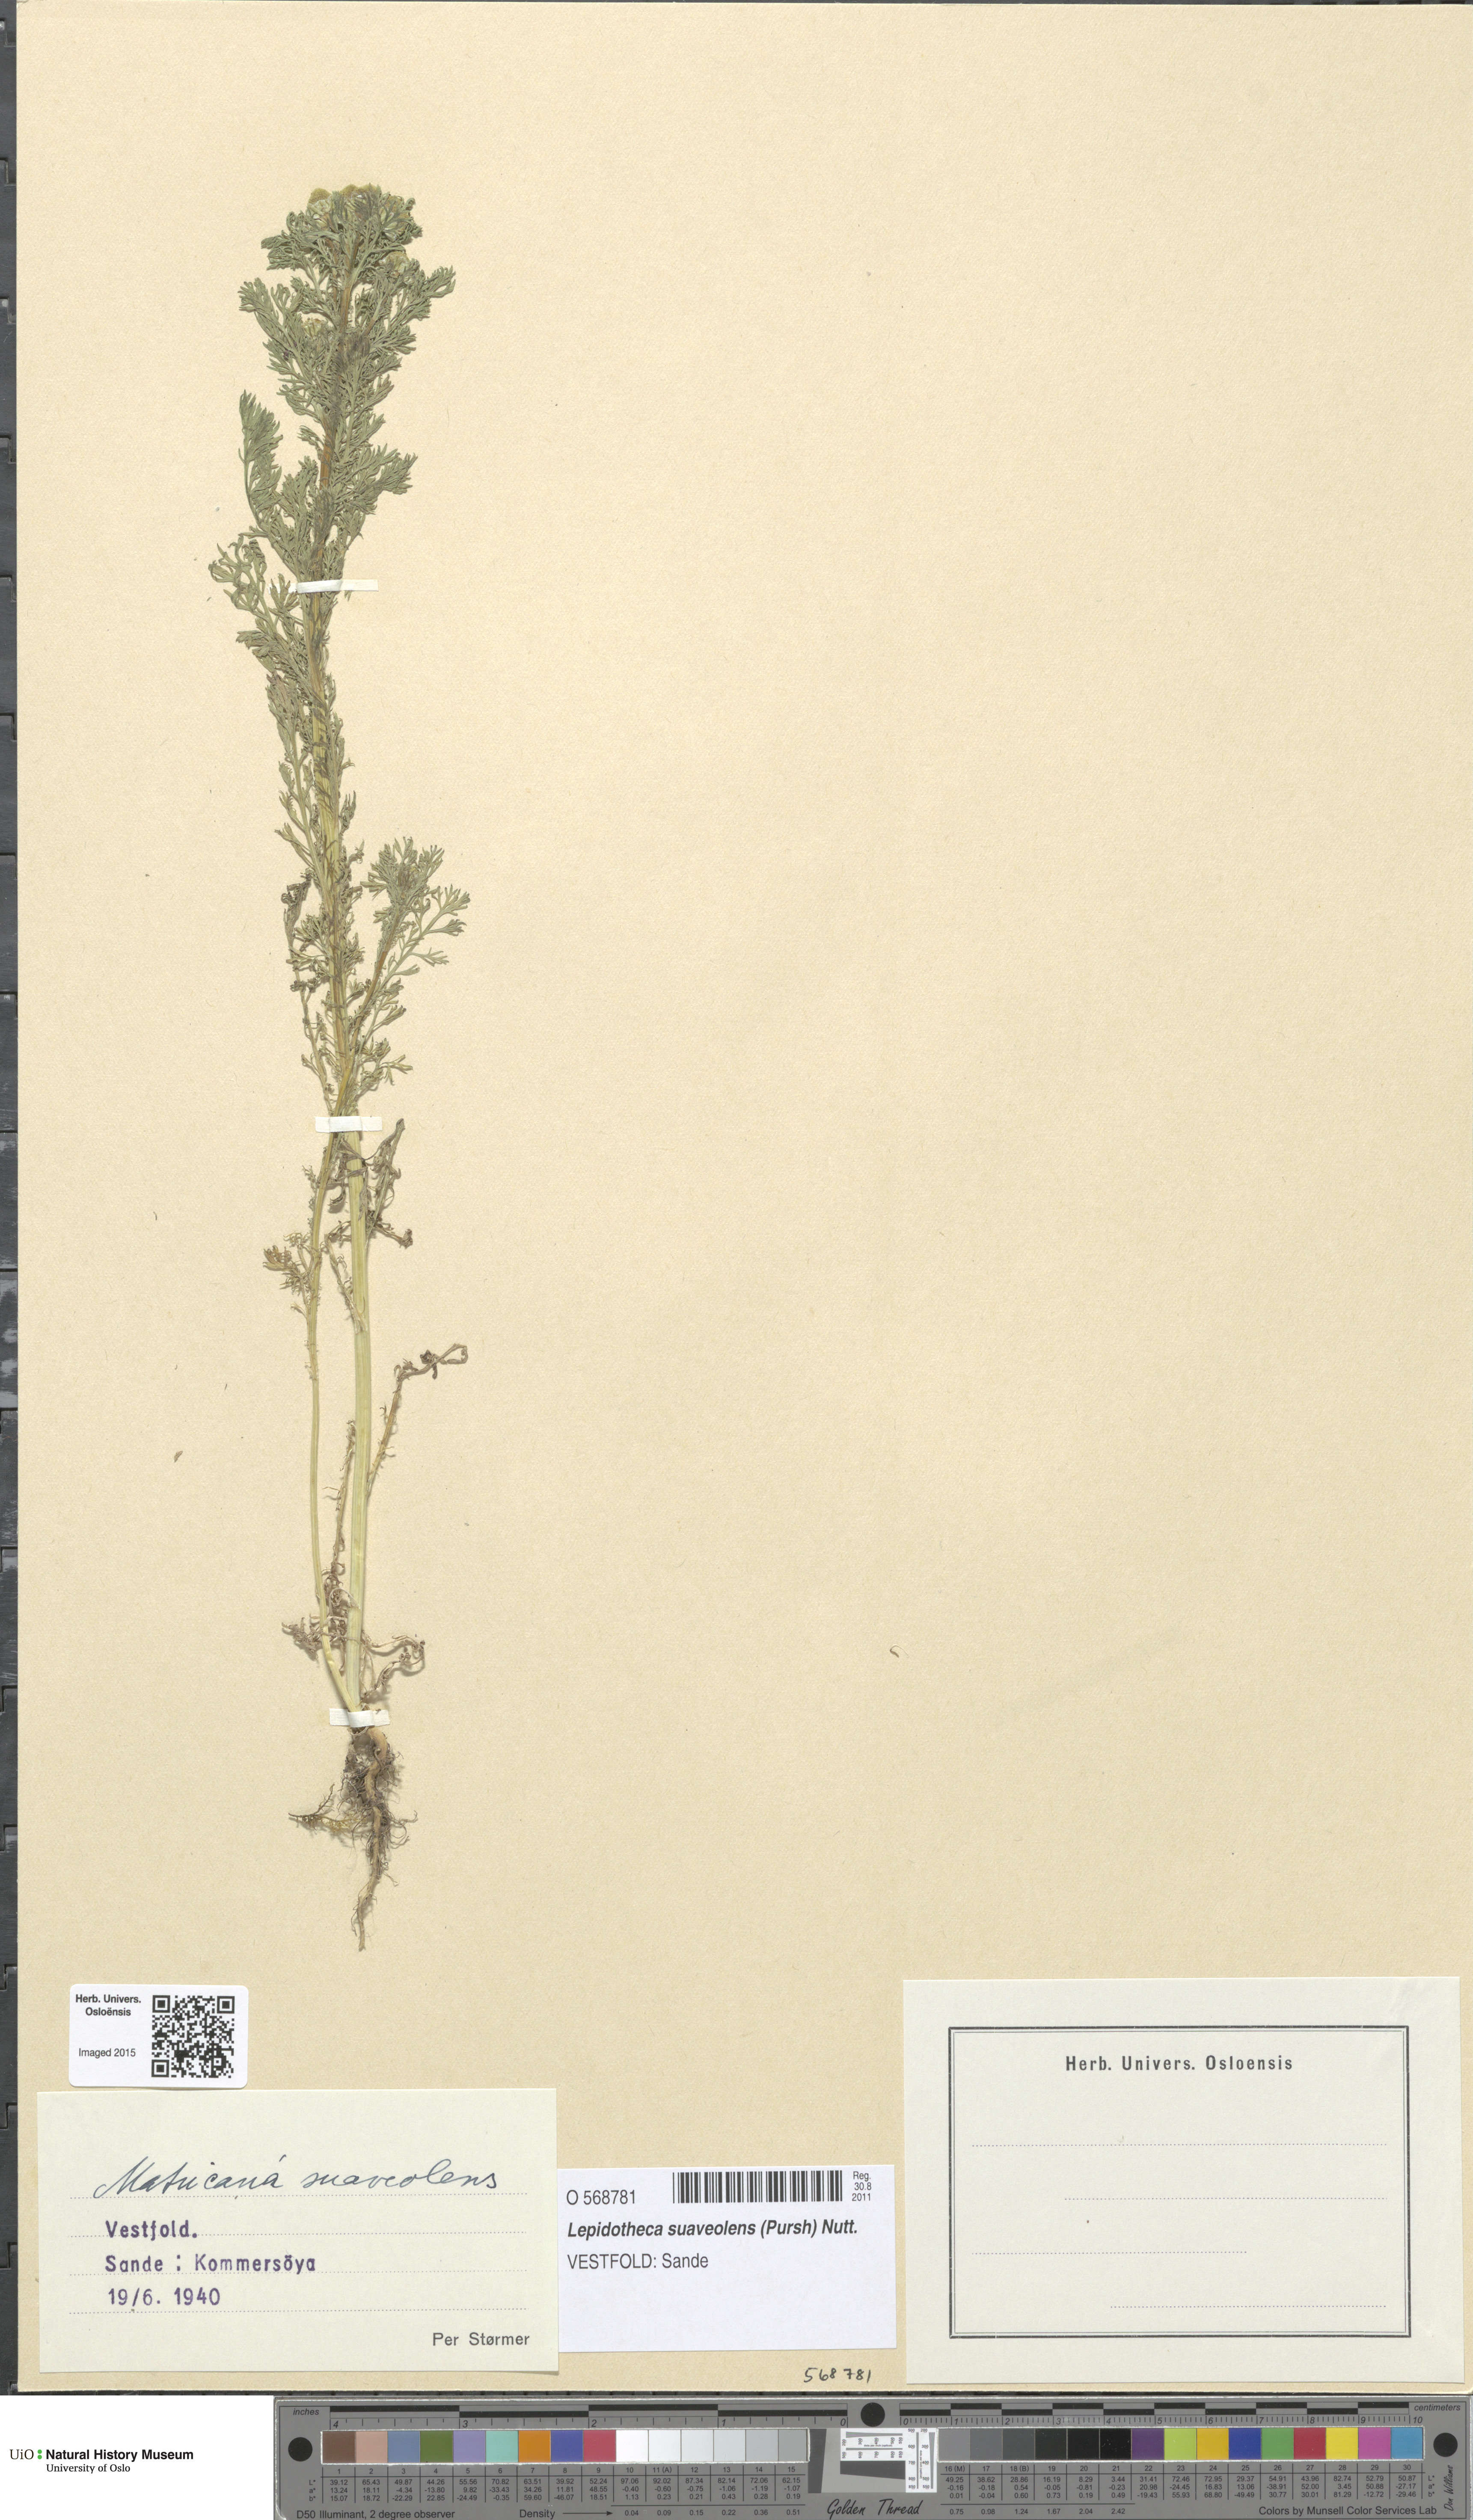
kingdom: Plantae
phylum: Tracheophyta
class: Magnoliopsida
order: Asterales
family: Asteraceae
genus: Matricaria
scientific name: Matricaria discoidea
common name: Disc mayweed
